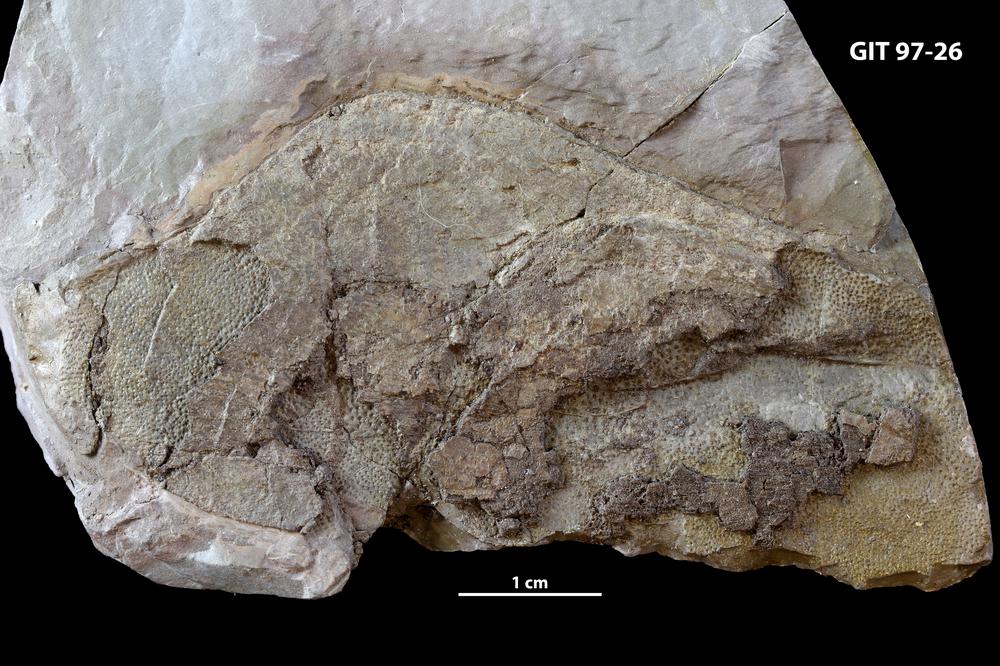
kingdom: Animalia
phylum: Chordata
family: Holonematidae
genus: Holonema
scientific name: Holonema
